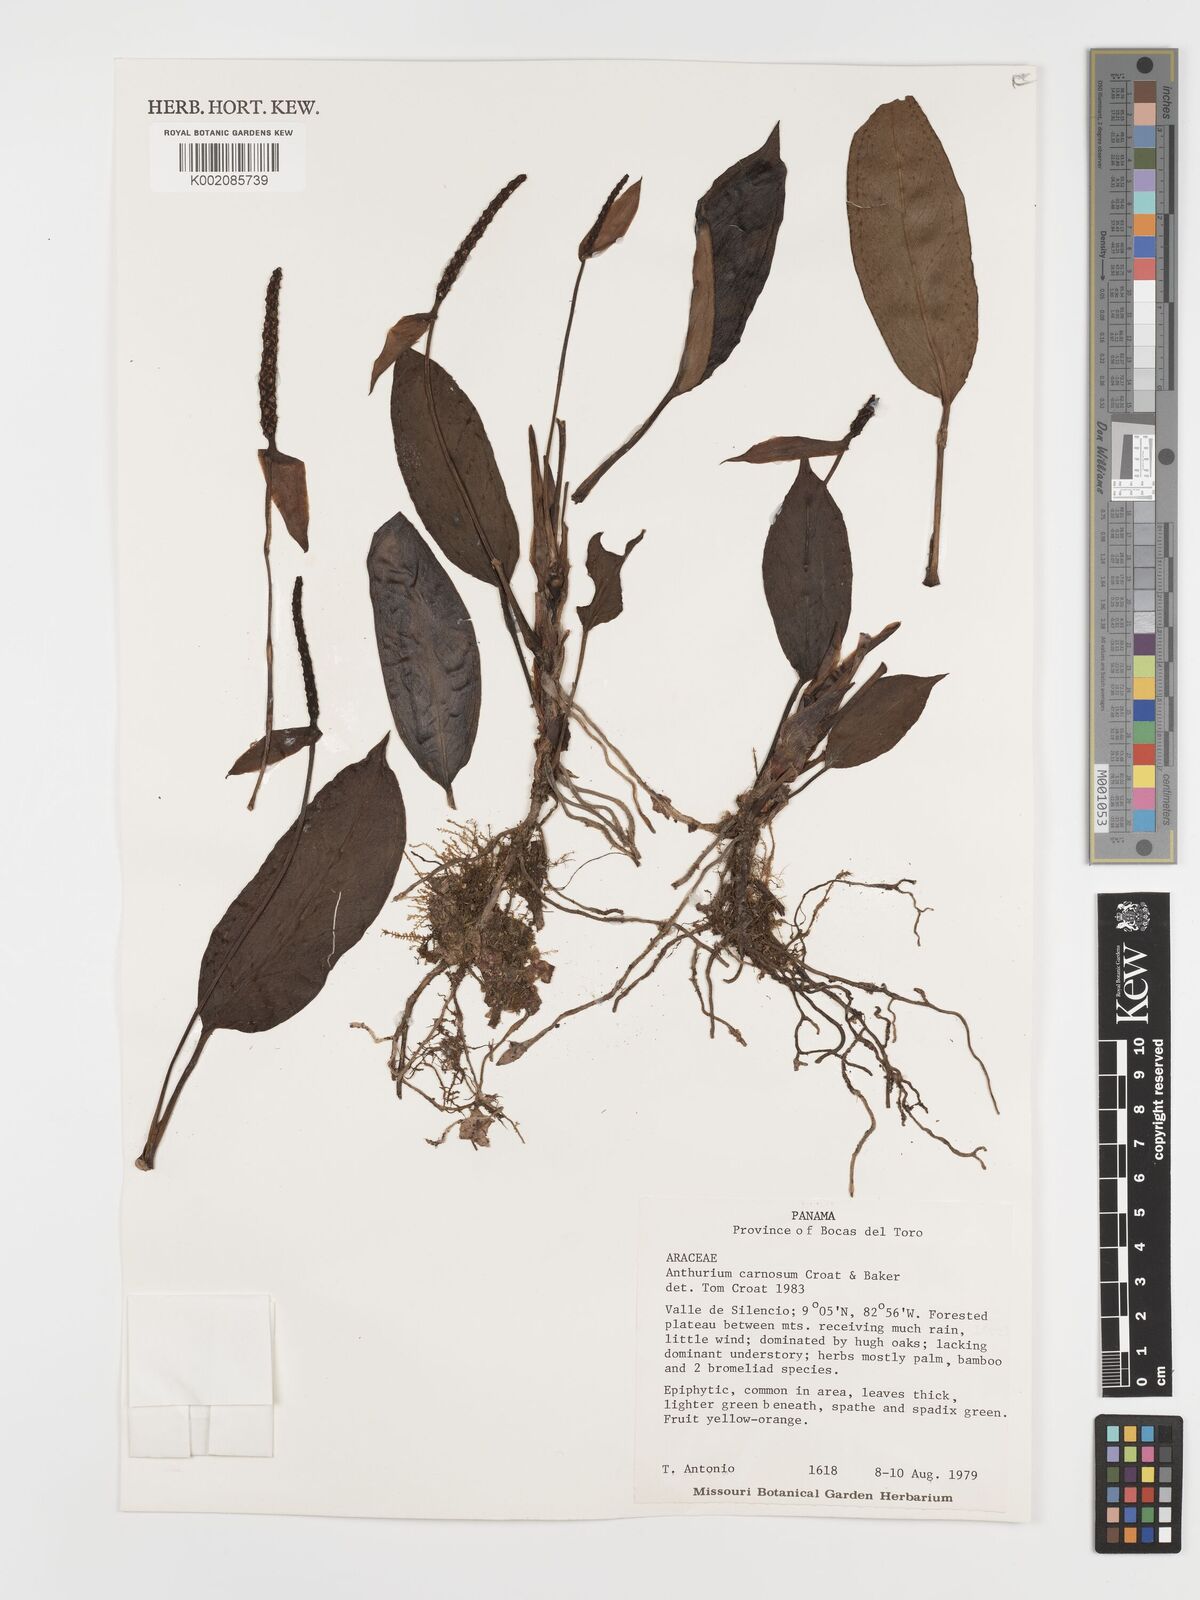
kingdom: Plantae
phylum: Tracheophyta
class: Liliopsida
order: Alismatales
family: Araceae
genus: Anthurium
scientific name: Anthurium carnosum
